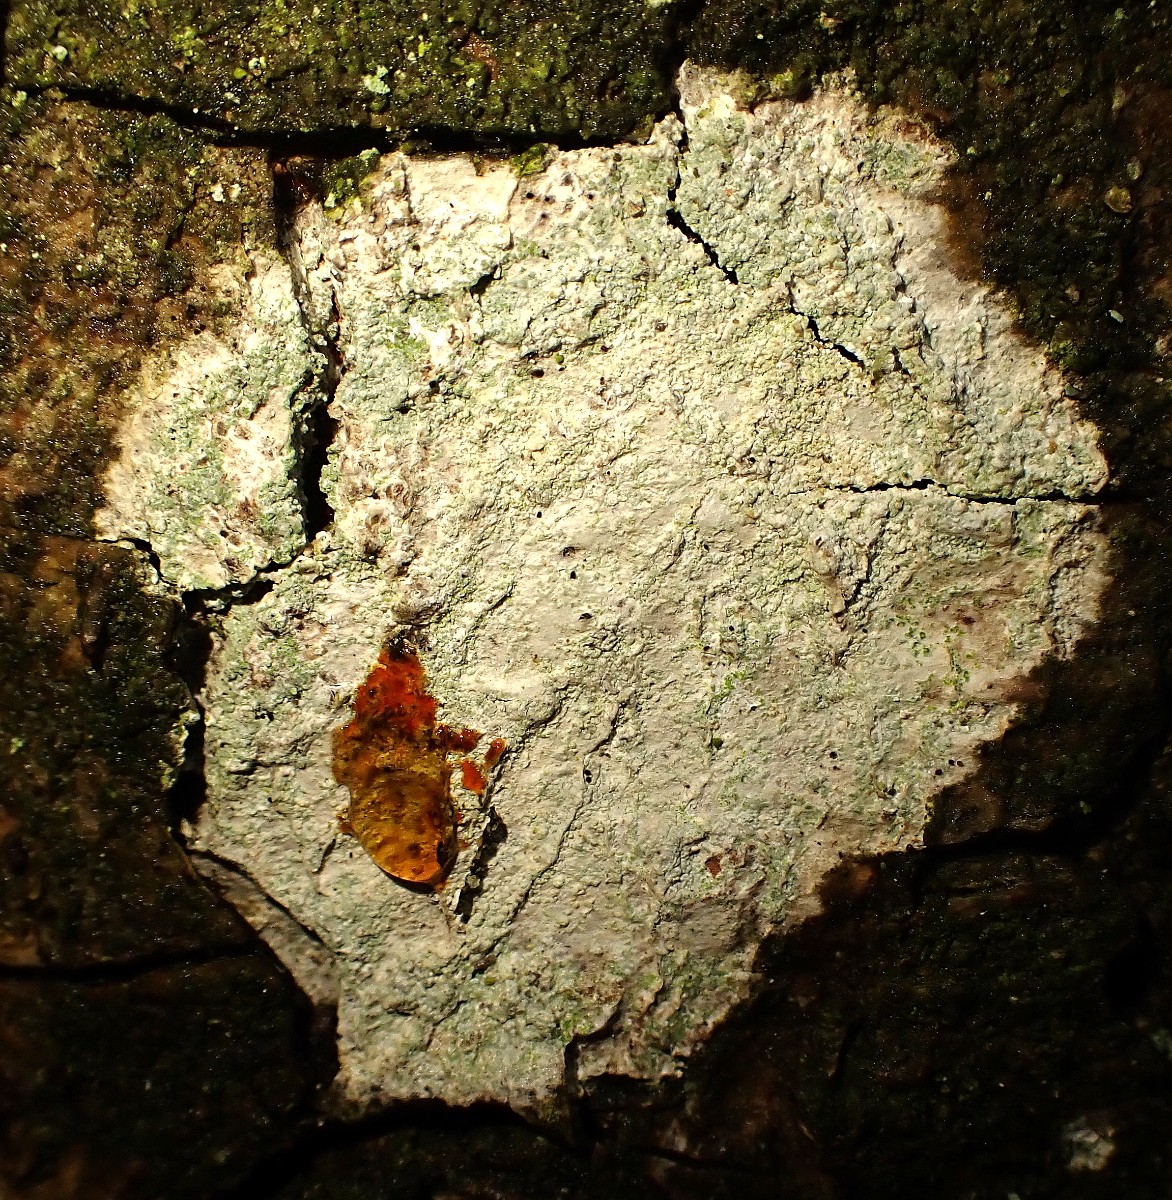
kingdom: Fungi
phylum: Ascomycota
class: Lecanoromycetes
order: Ostropales
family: Phlyctidaceae
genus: Phlyctis
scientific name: Phlyctis argena
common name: almindelig sølvlav
